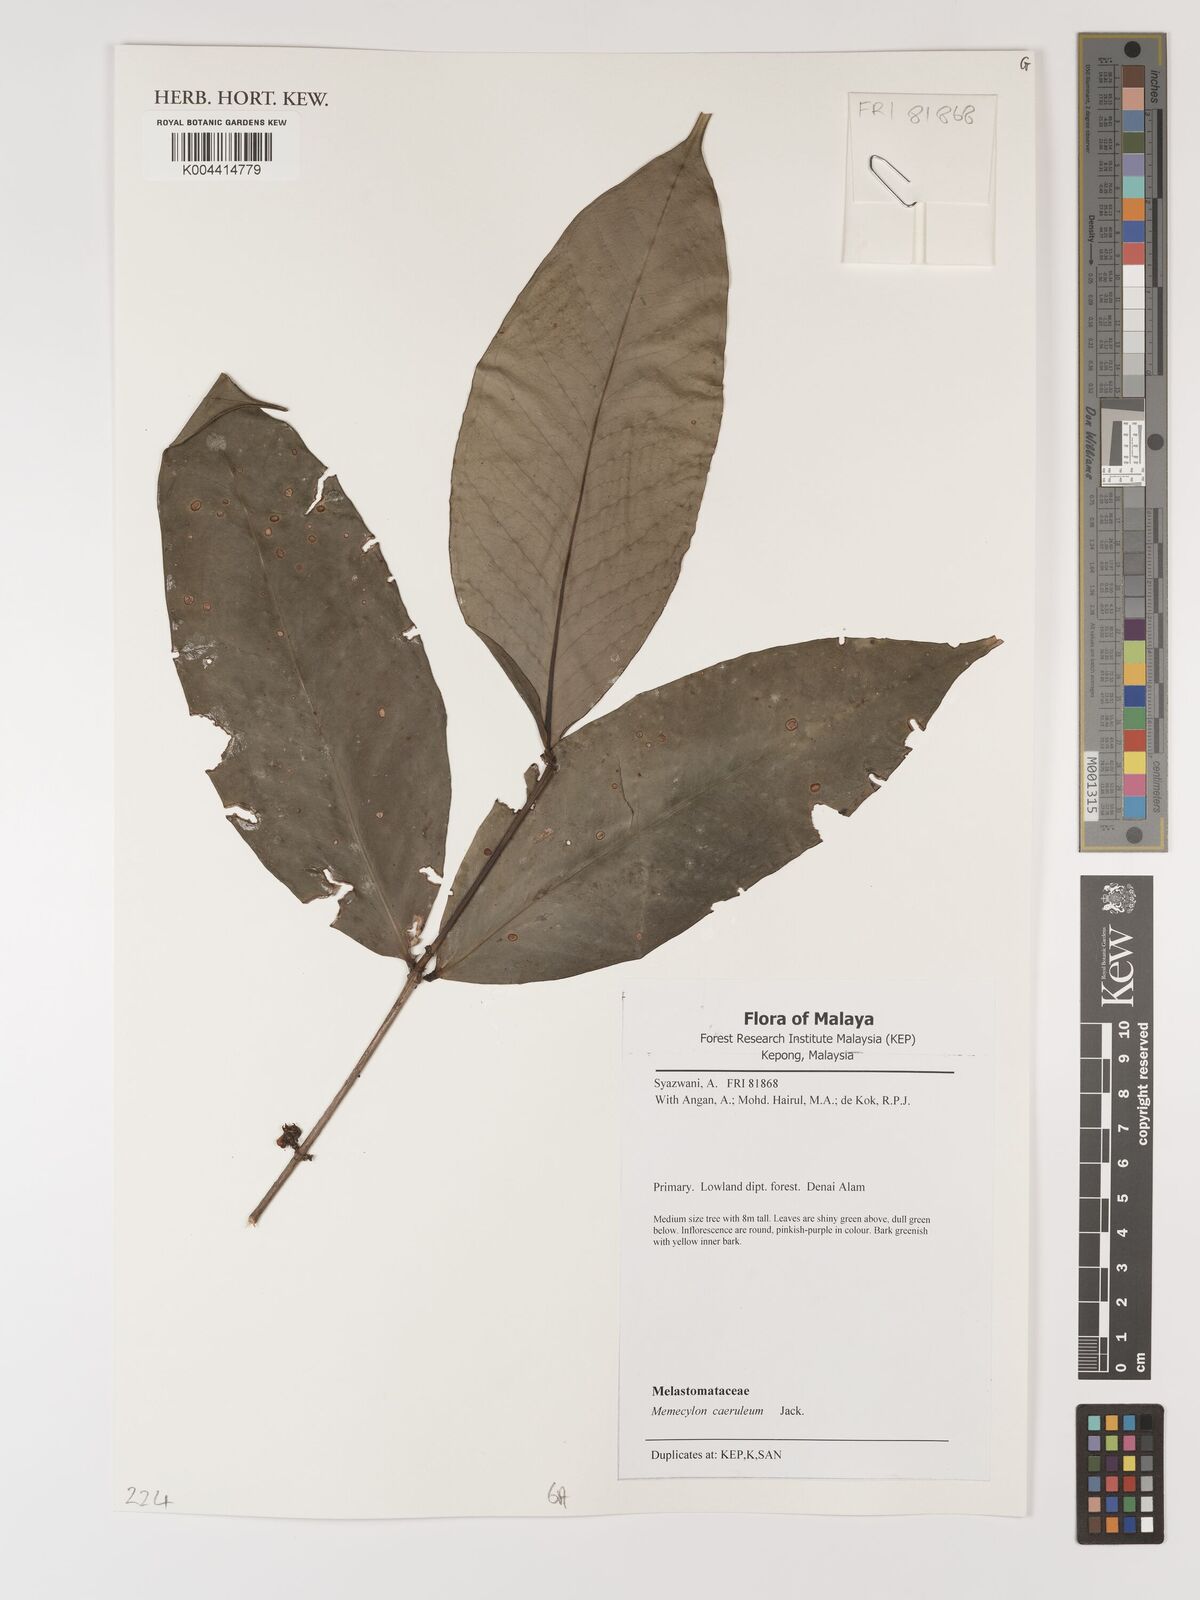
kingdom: Plantae
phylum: Tracheophyta
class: Magnoliopsida
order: Myrtales
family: Melastomataceae
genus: Memecylon
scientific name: Memecylon
